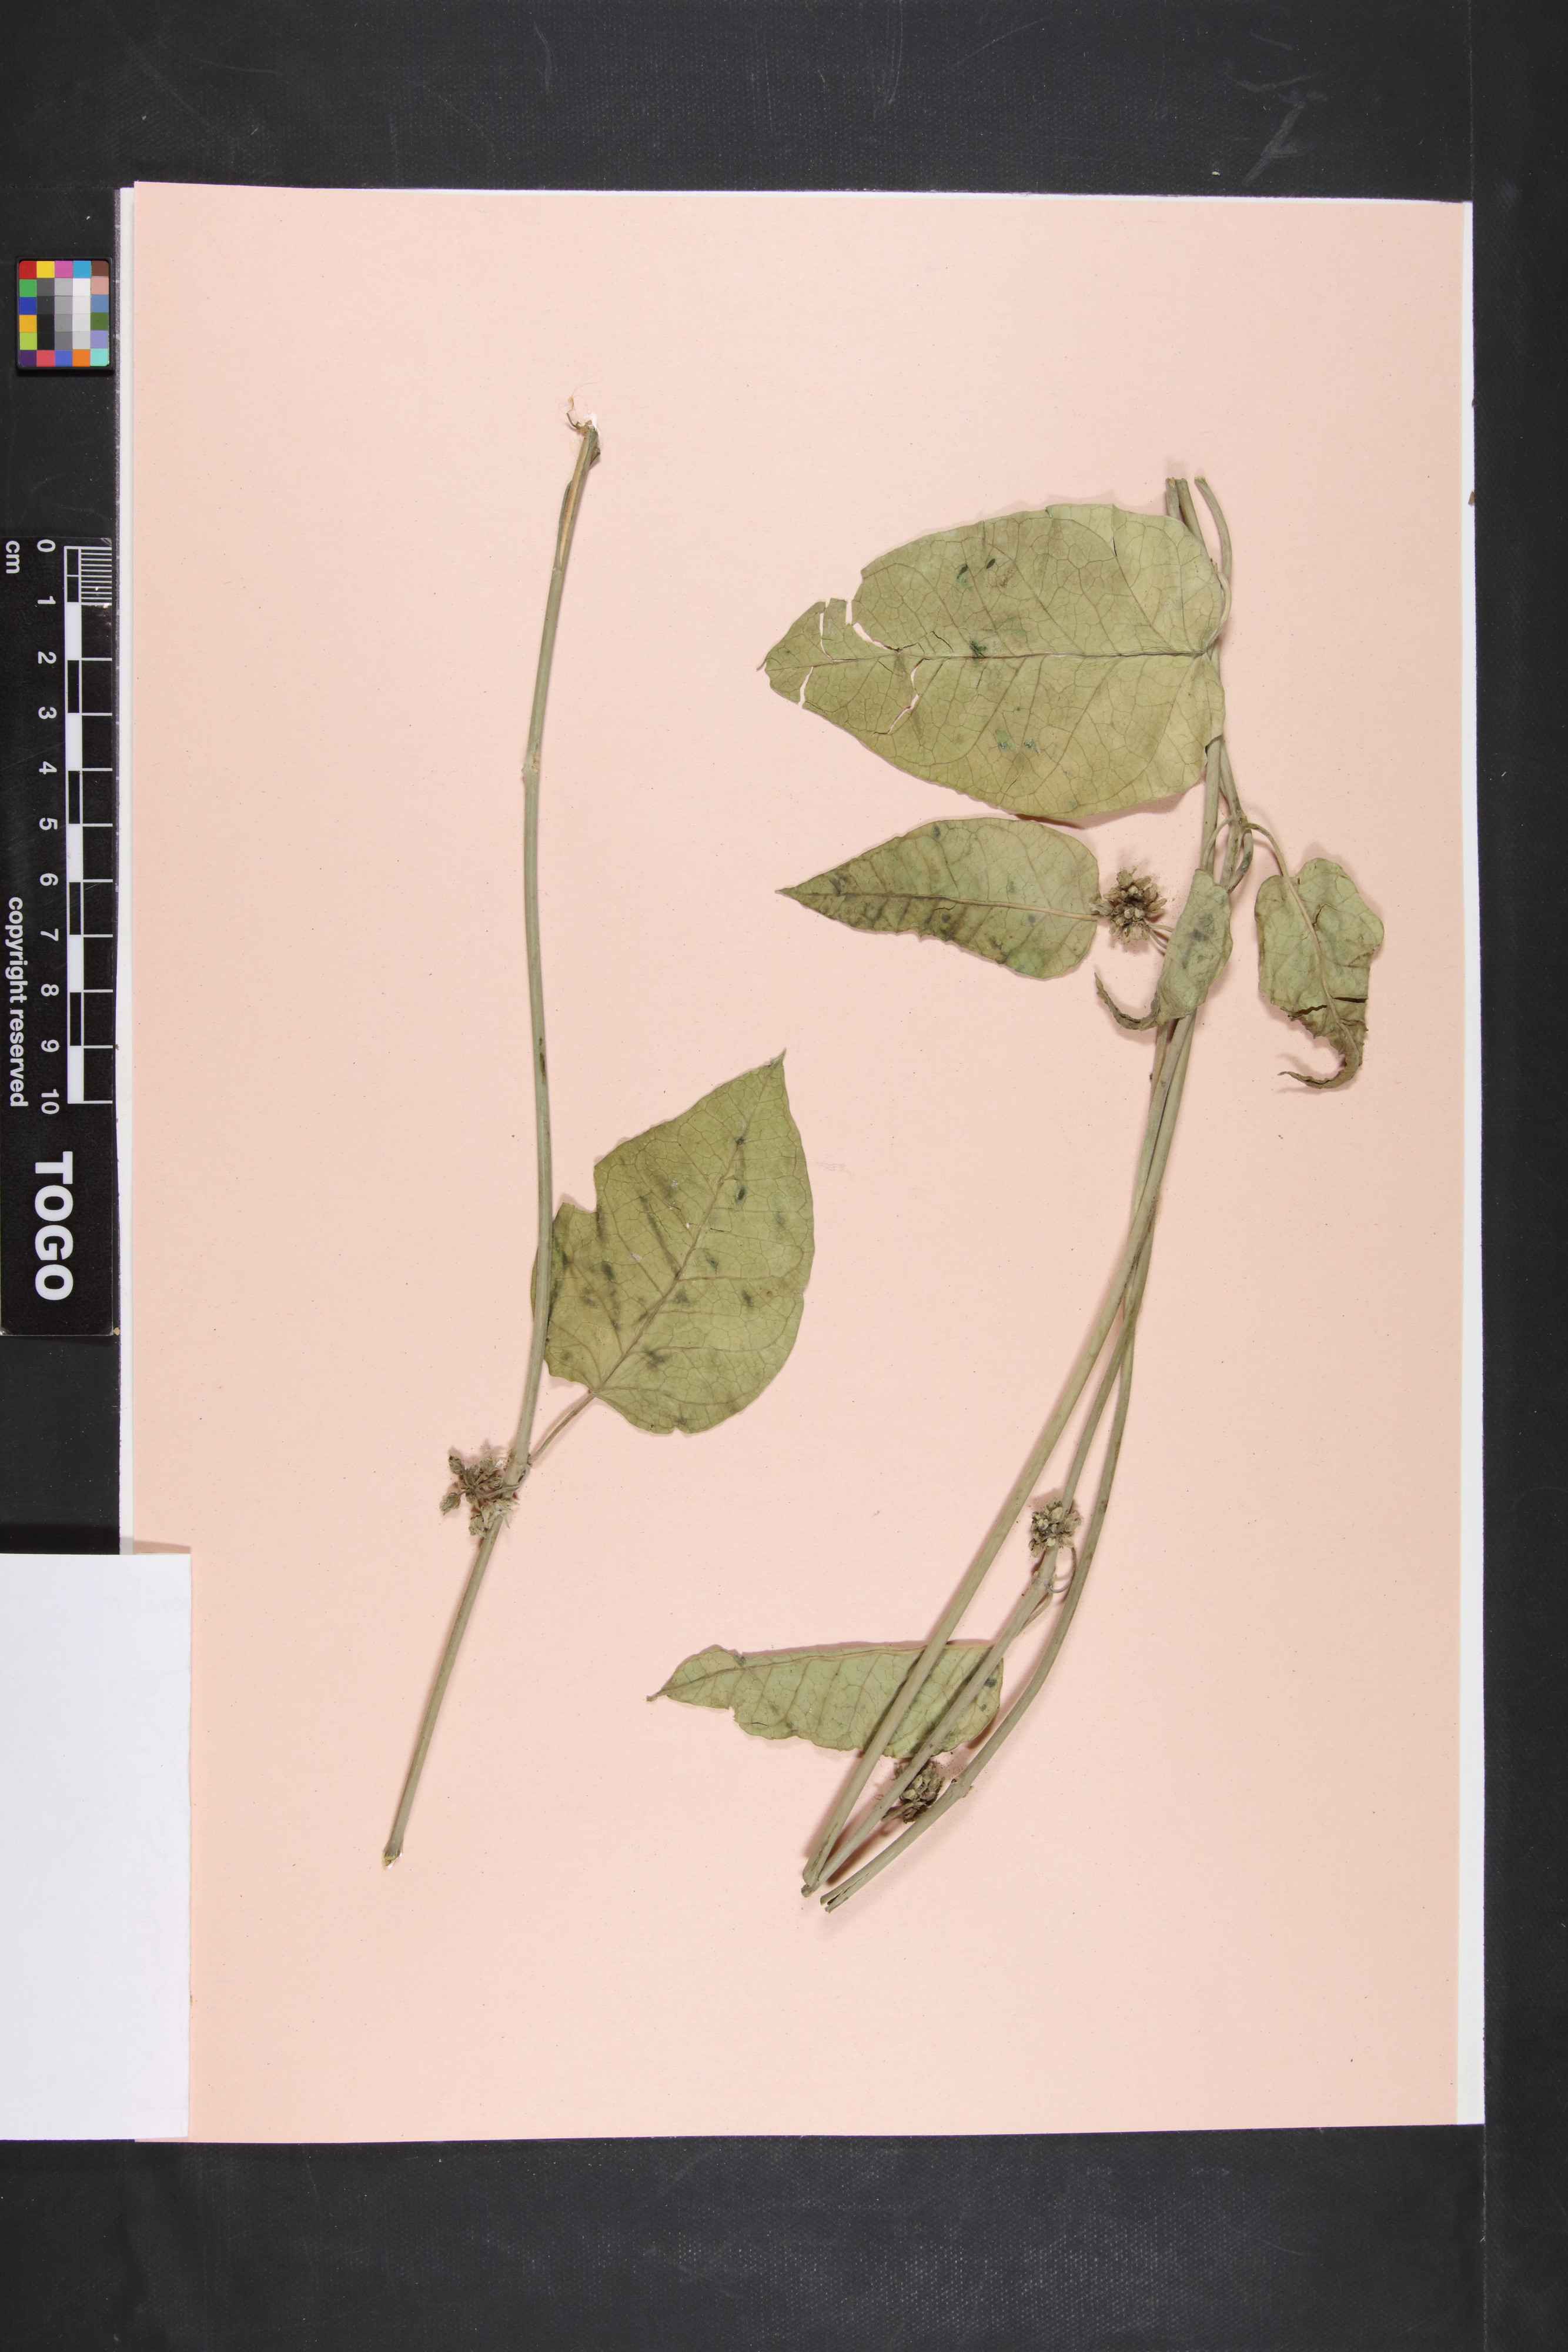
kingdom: Plantae
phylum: Tracheophyta
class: Magnoliopsida
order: Gentianales
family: Apocynaceae
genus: Leptadenia
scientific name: Leptadenia lanceolata
